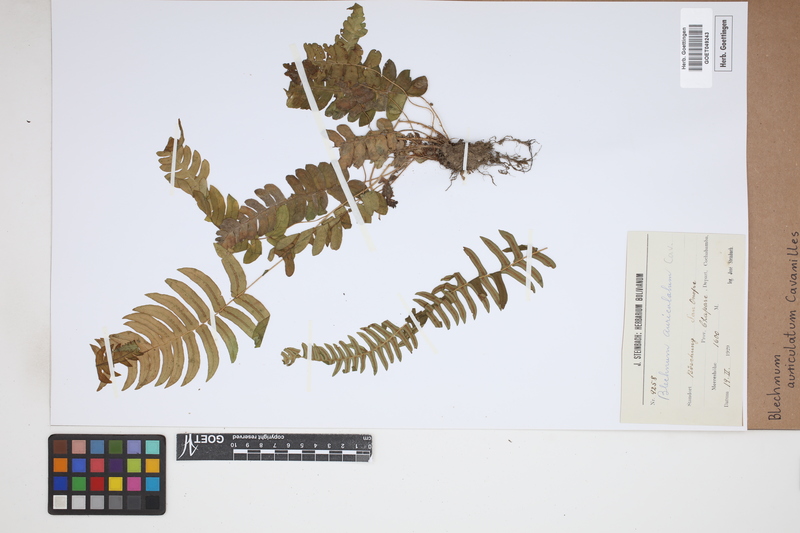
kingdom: Plantae
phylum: Tracheophyta
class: Polypodiopsida
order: Polypodiales
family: Blechnaceae
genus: Blechnum
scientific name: Blechnum auriculatum
